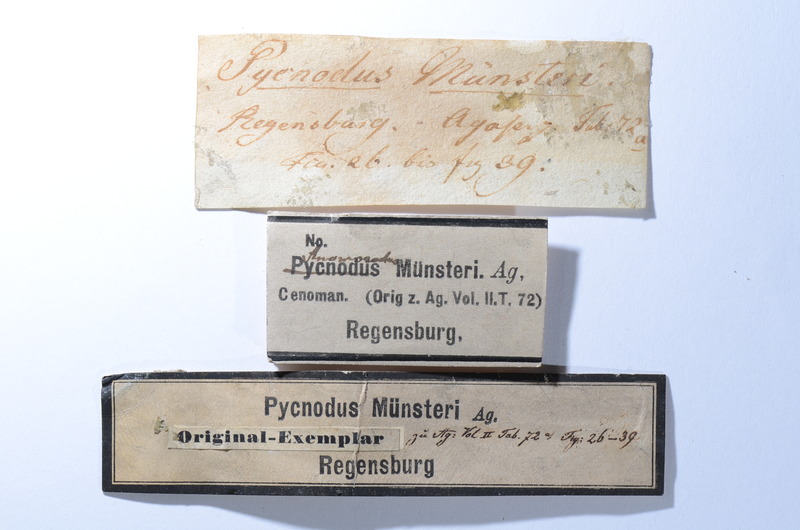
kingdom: Animalia
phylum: Chordata
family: Pycnodontidae
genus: Anomoeodus
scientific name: Anomoeodus
